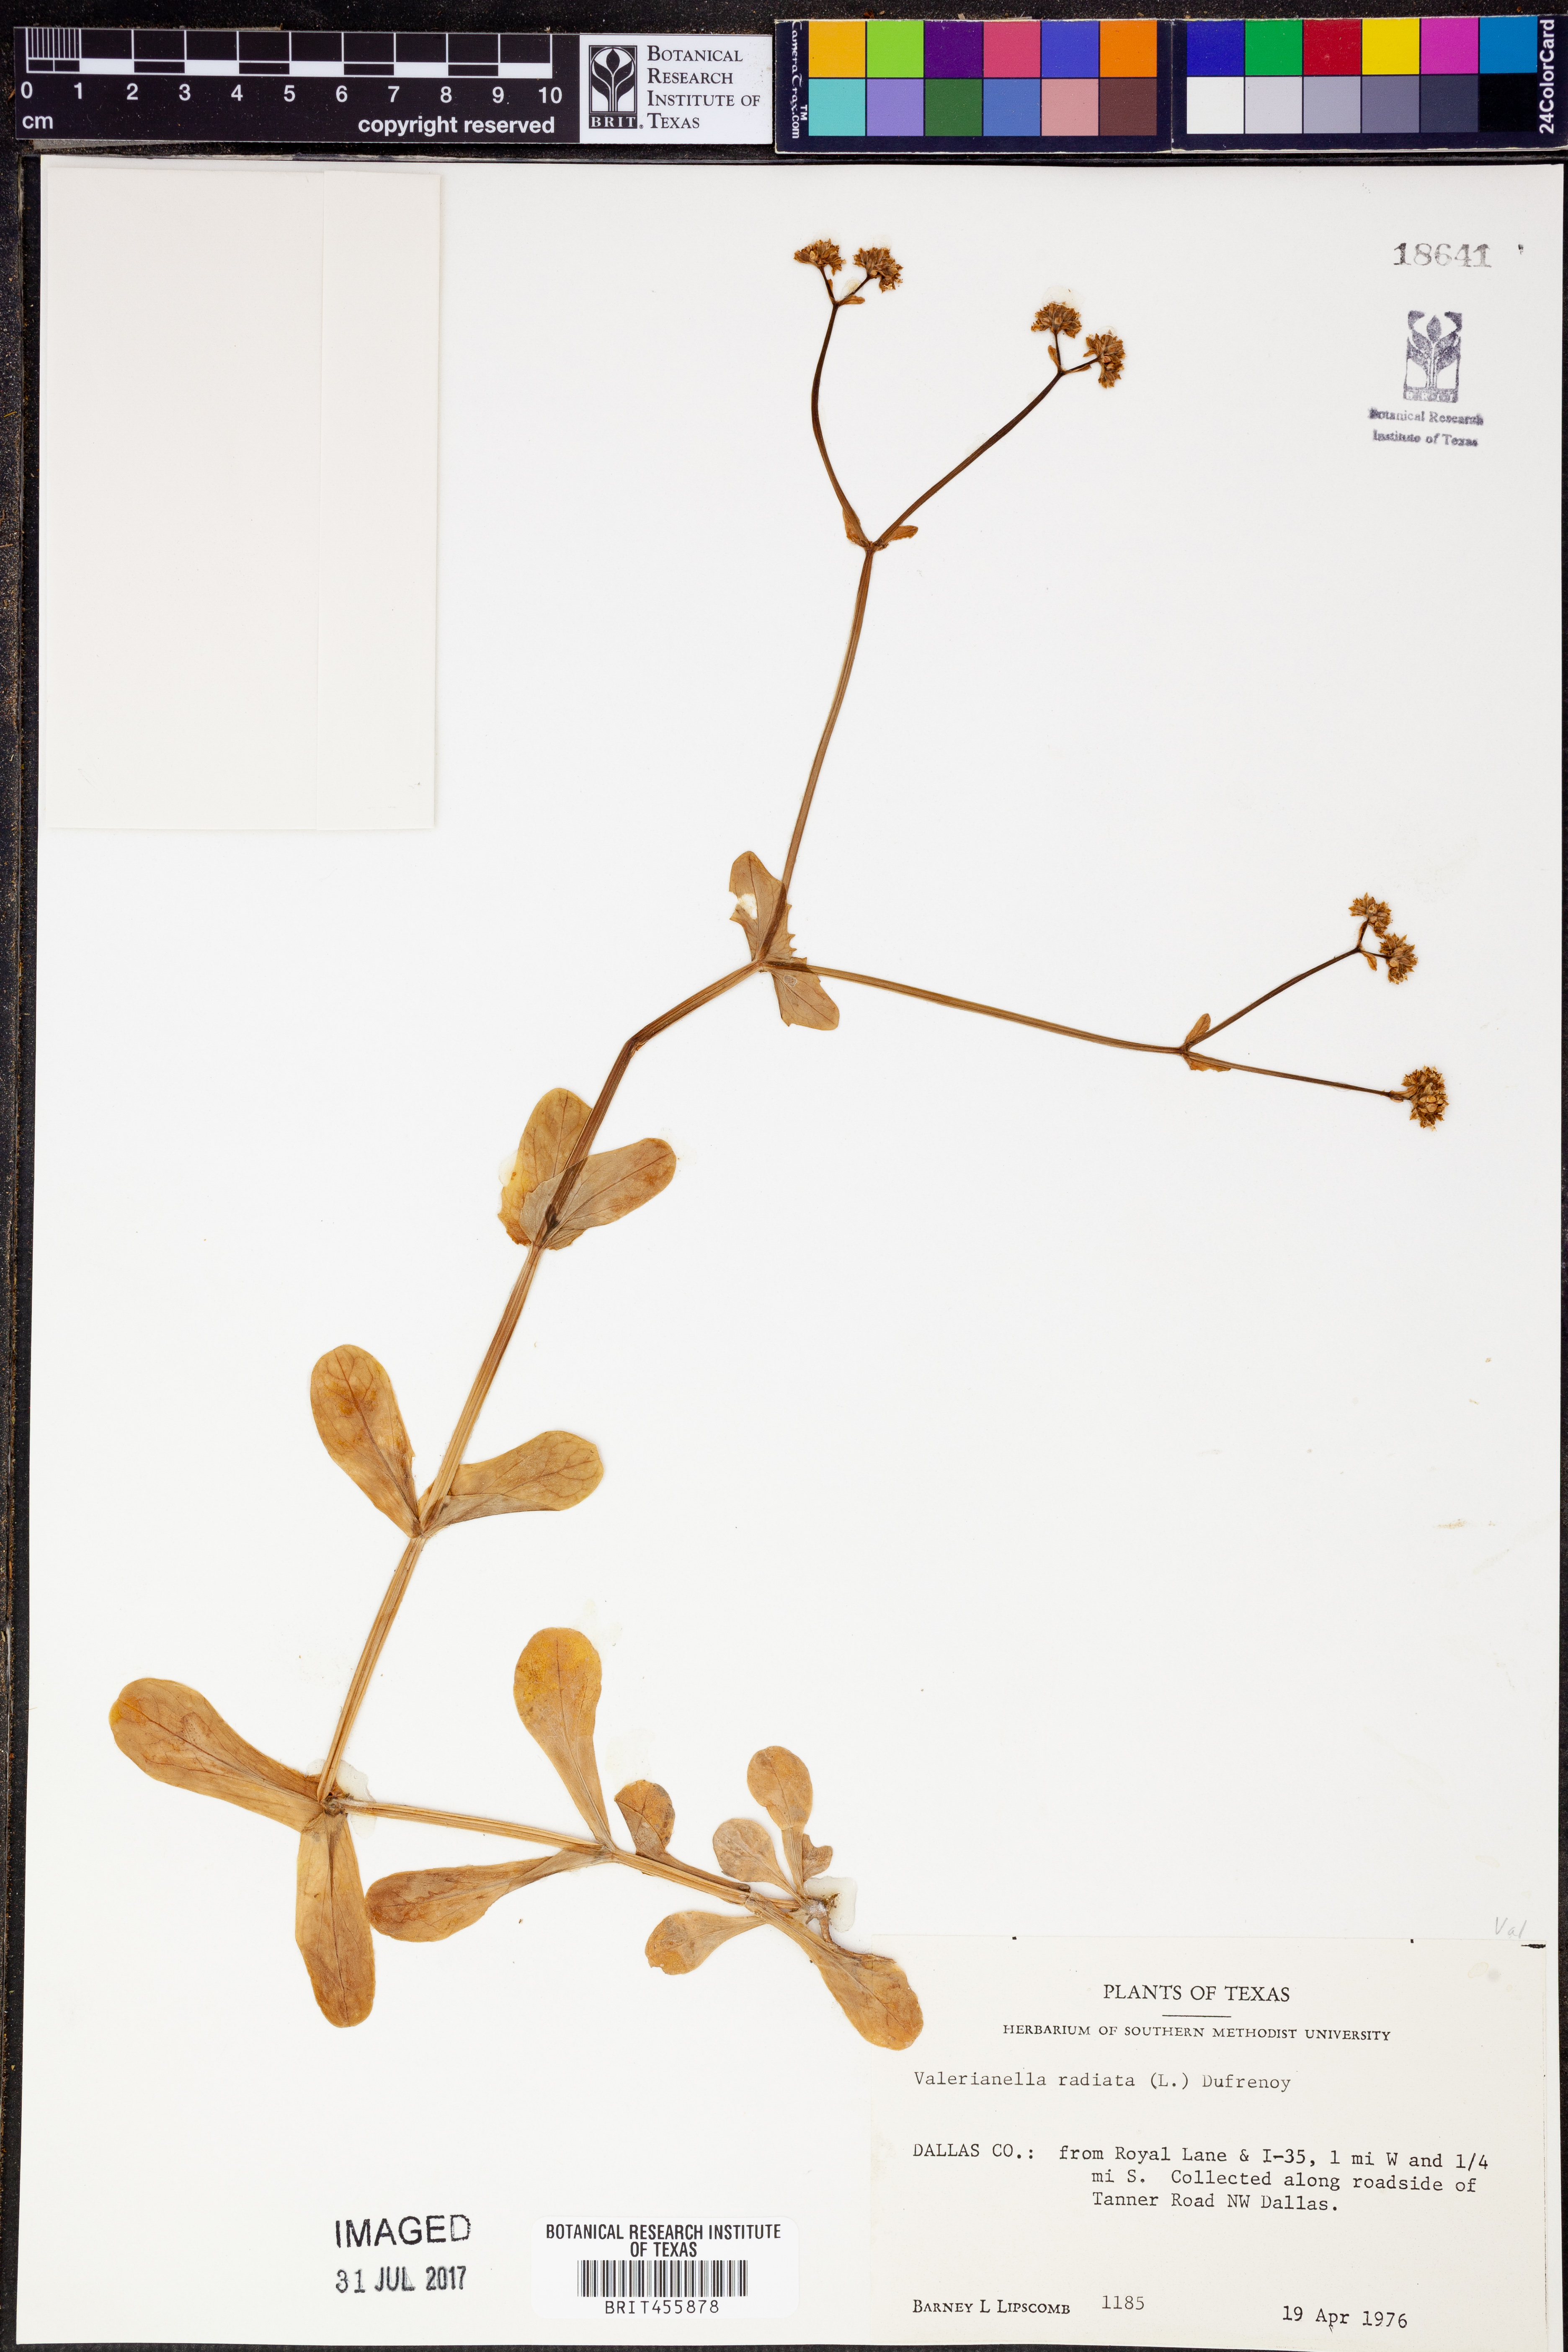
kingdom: Plantae
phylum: Tracheophyta
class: Magnoliopsida
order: Dipsacales
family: Caprifoliaceae
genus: Valerianella
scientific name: Valerianella radiata
